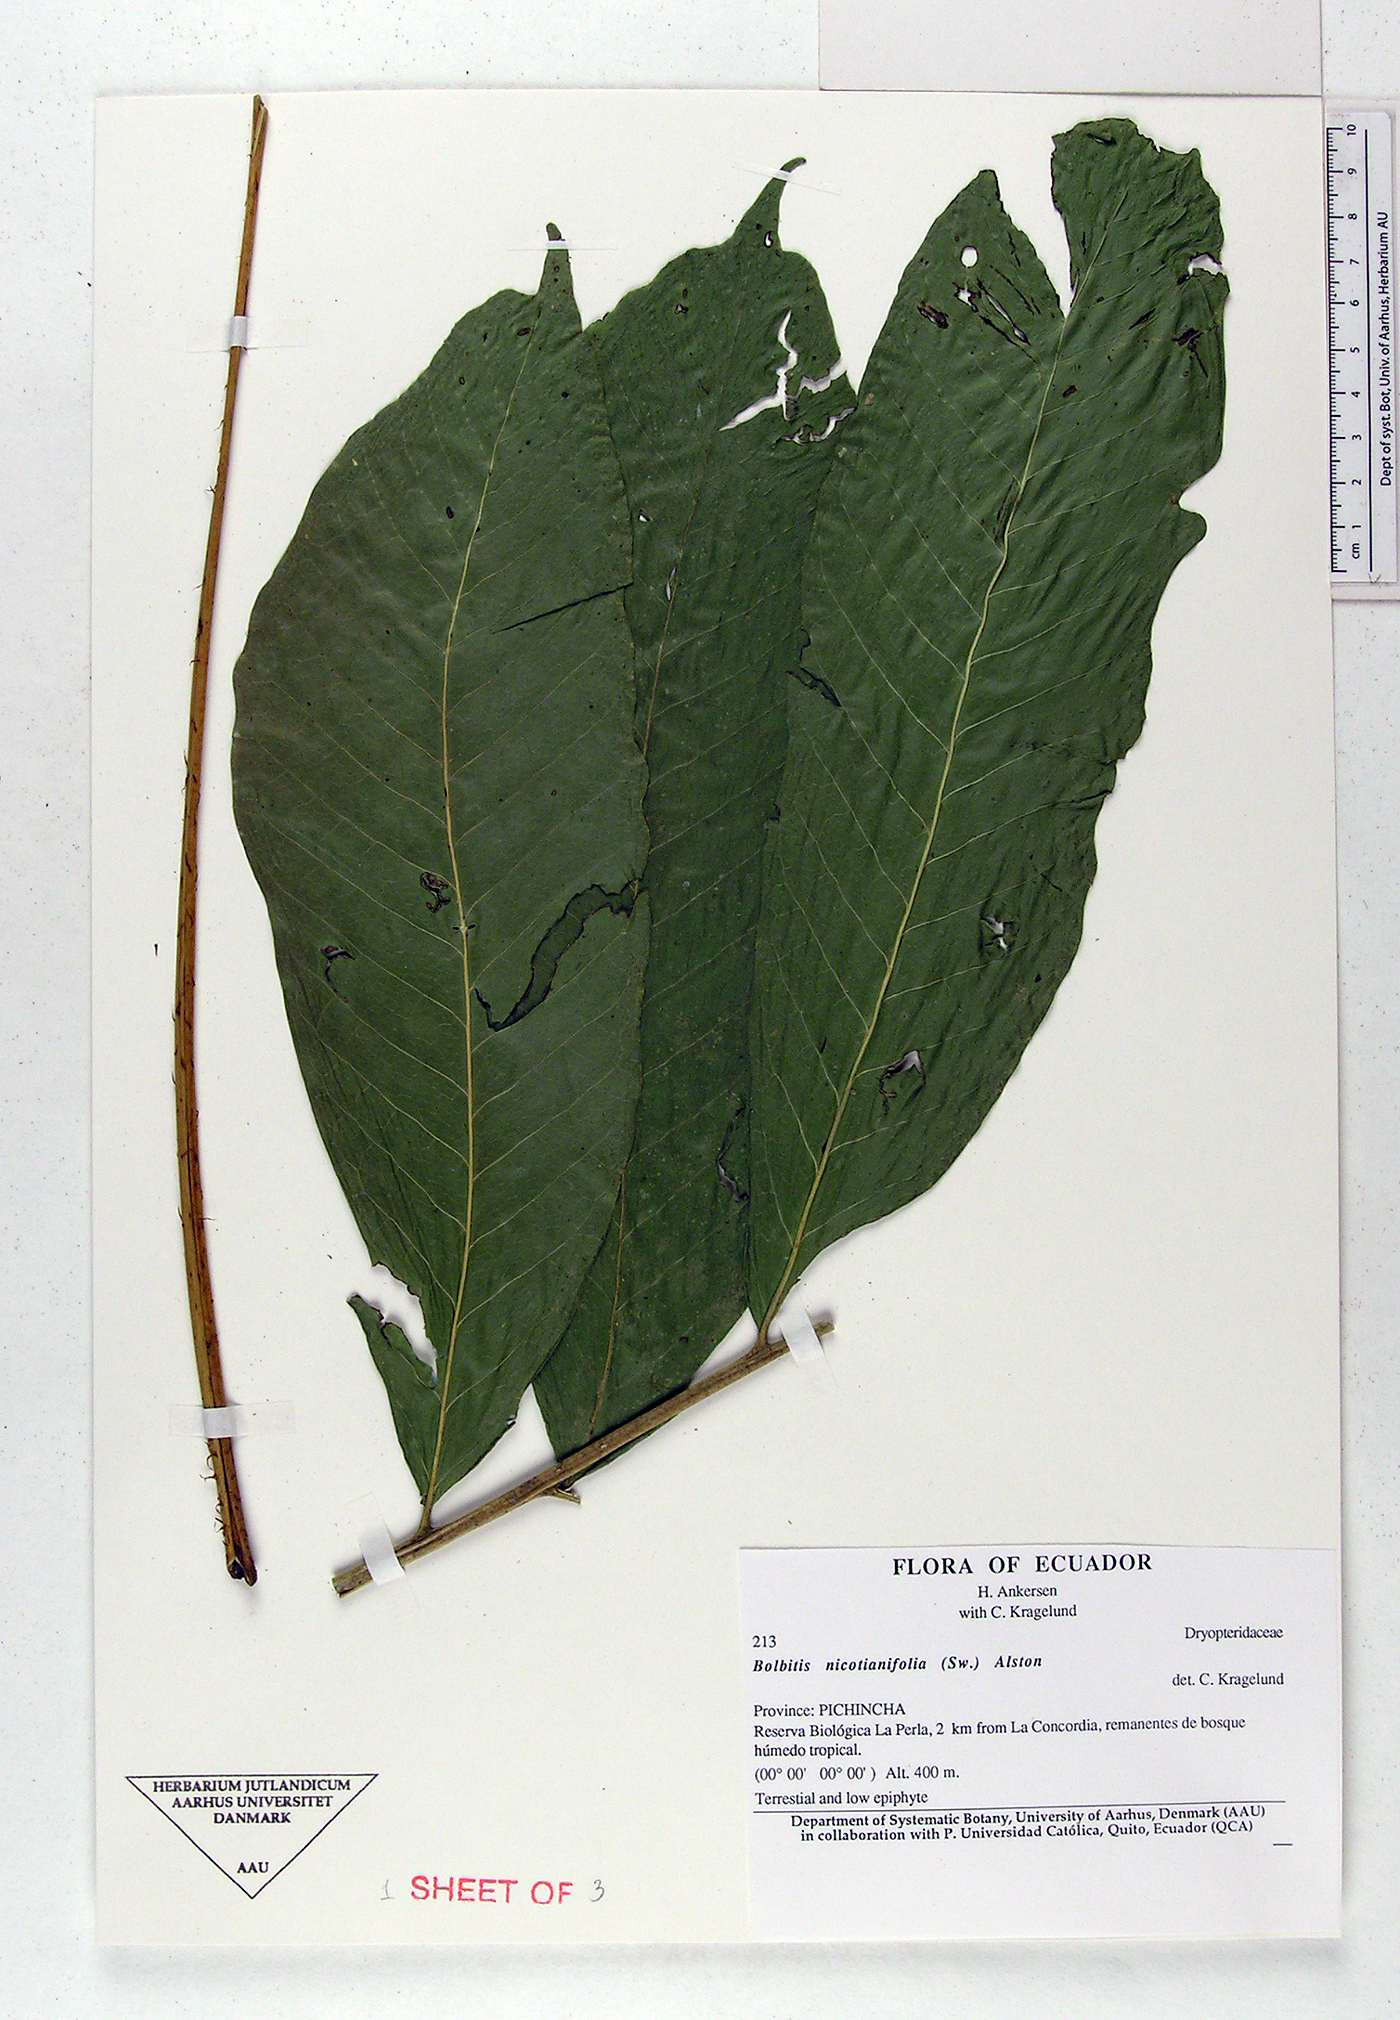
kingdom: Plantae
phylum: Tracheophyta
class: Polypodiopsida
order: Polypodiales
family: Dryopteridaceae
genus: Mickelia
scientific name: Mickelia nicotianifolia
